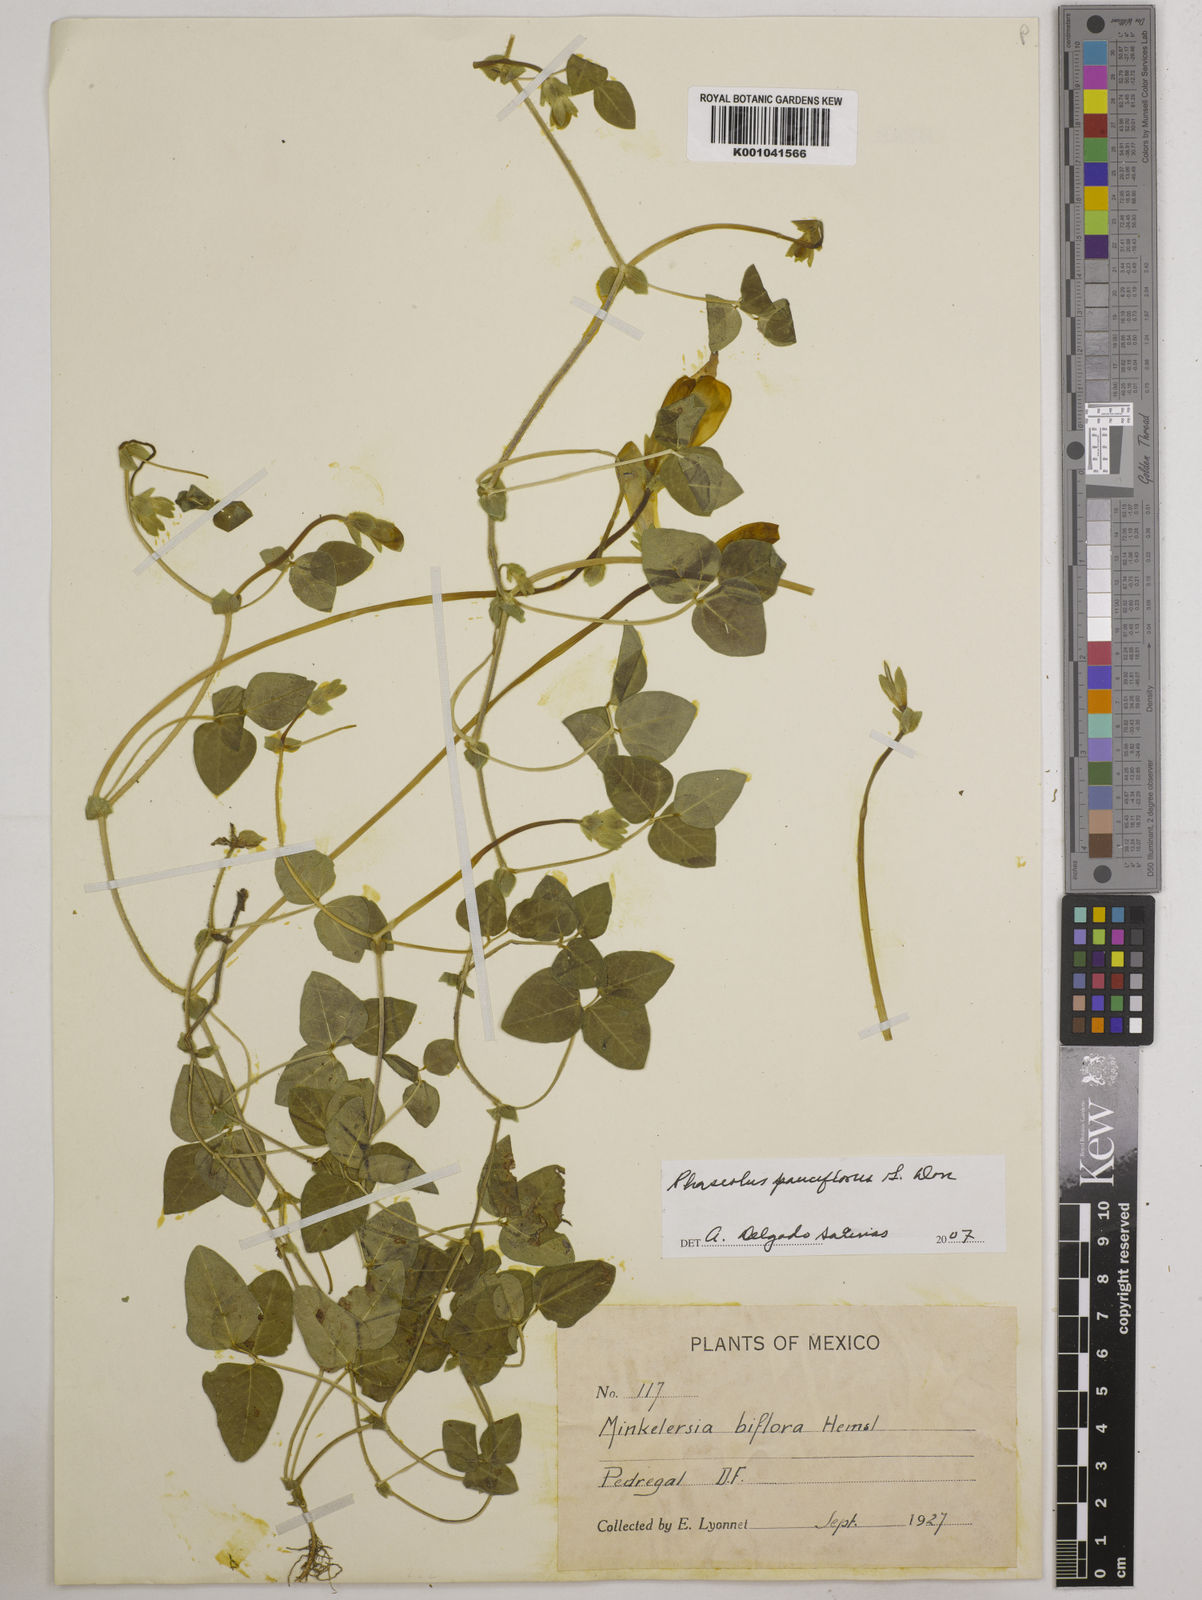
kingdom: Plantae
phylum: Tracheophyta
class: Magnoliopsida
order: Fabales
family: Fabaceae
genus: Phaseolus
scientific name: Phaseolus
